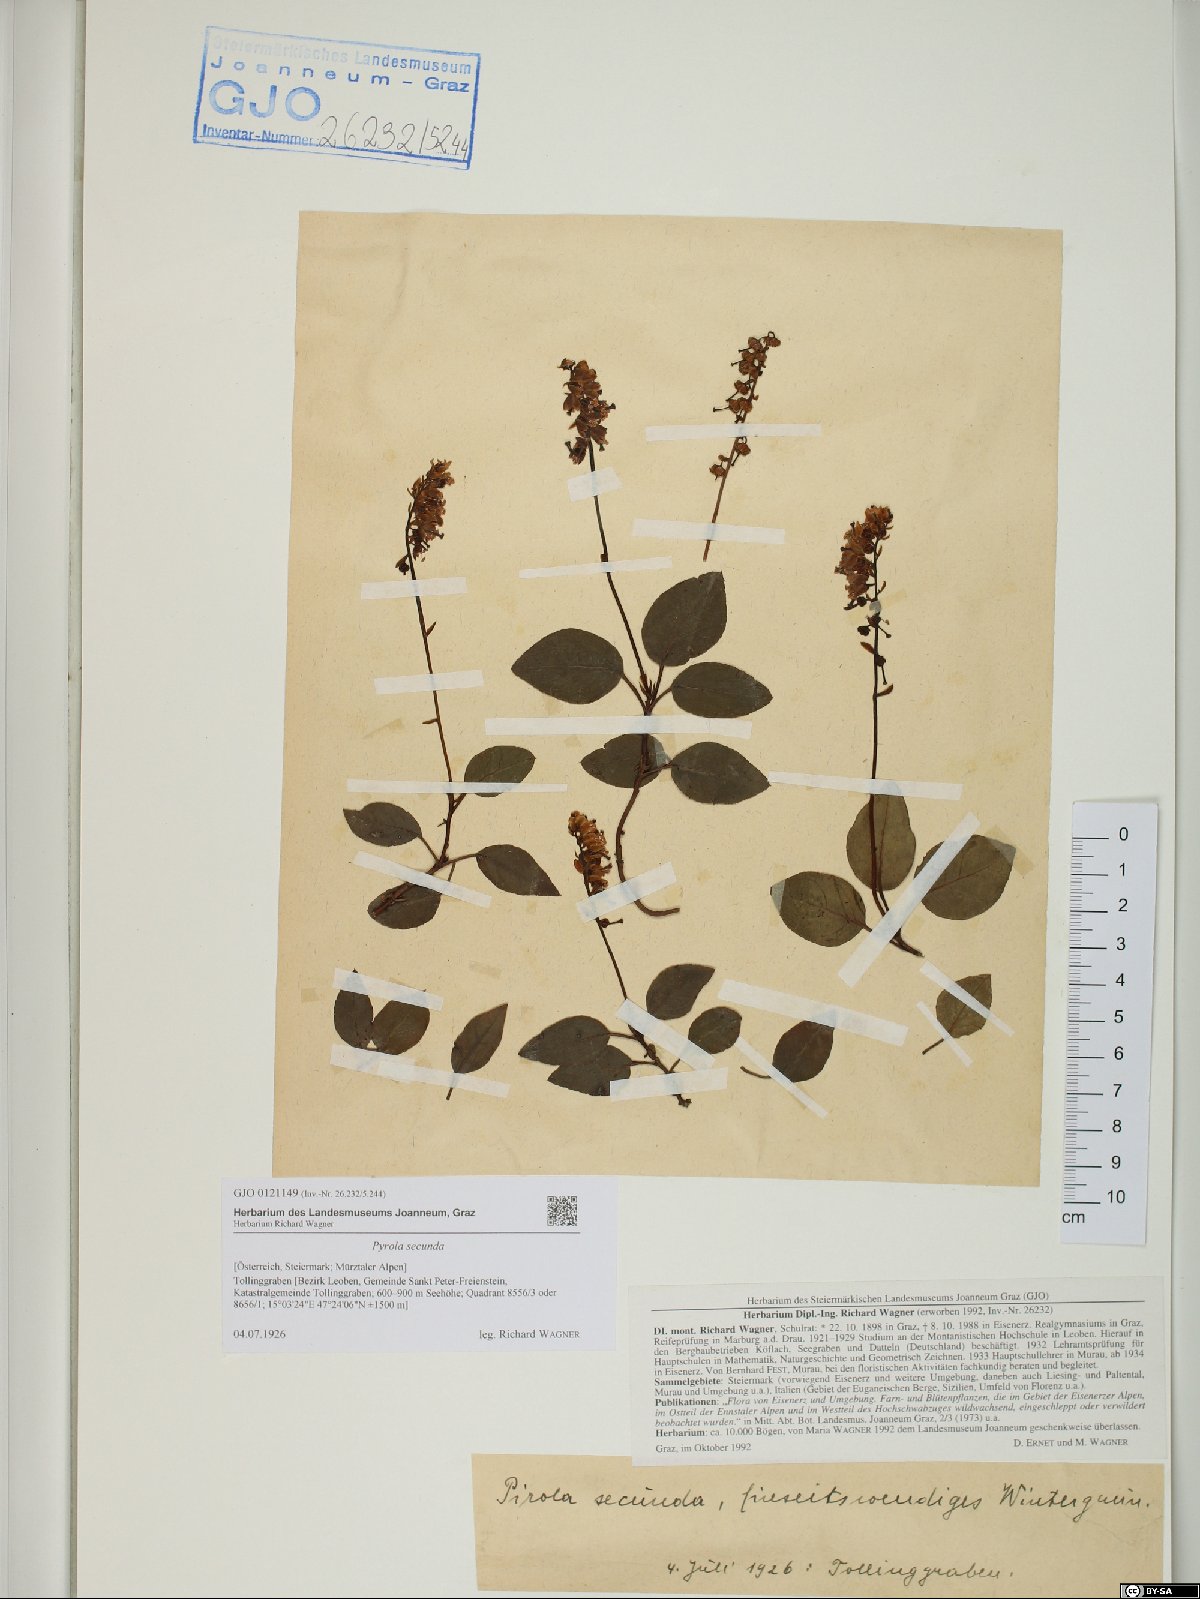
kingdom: Plantae
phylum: Tracheophyta
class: Magnoliopsida
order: Ericales
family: Ericaceae
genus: Orthilia
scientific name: Orthilia secunda
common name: One-sided orthilia
